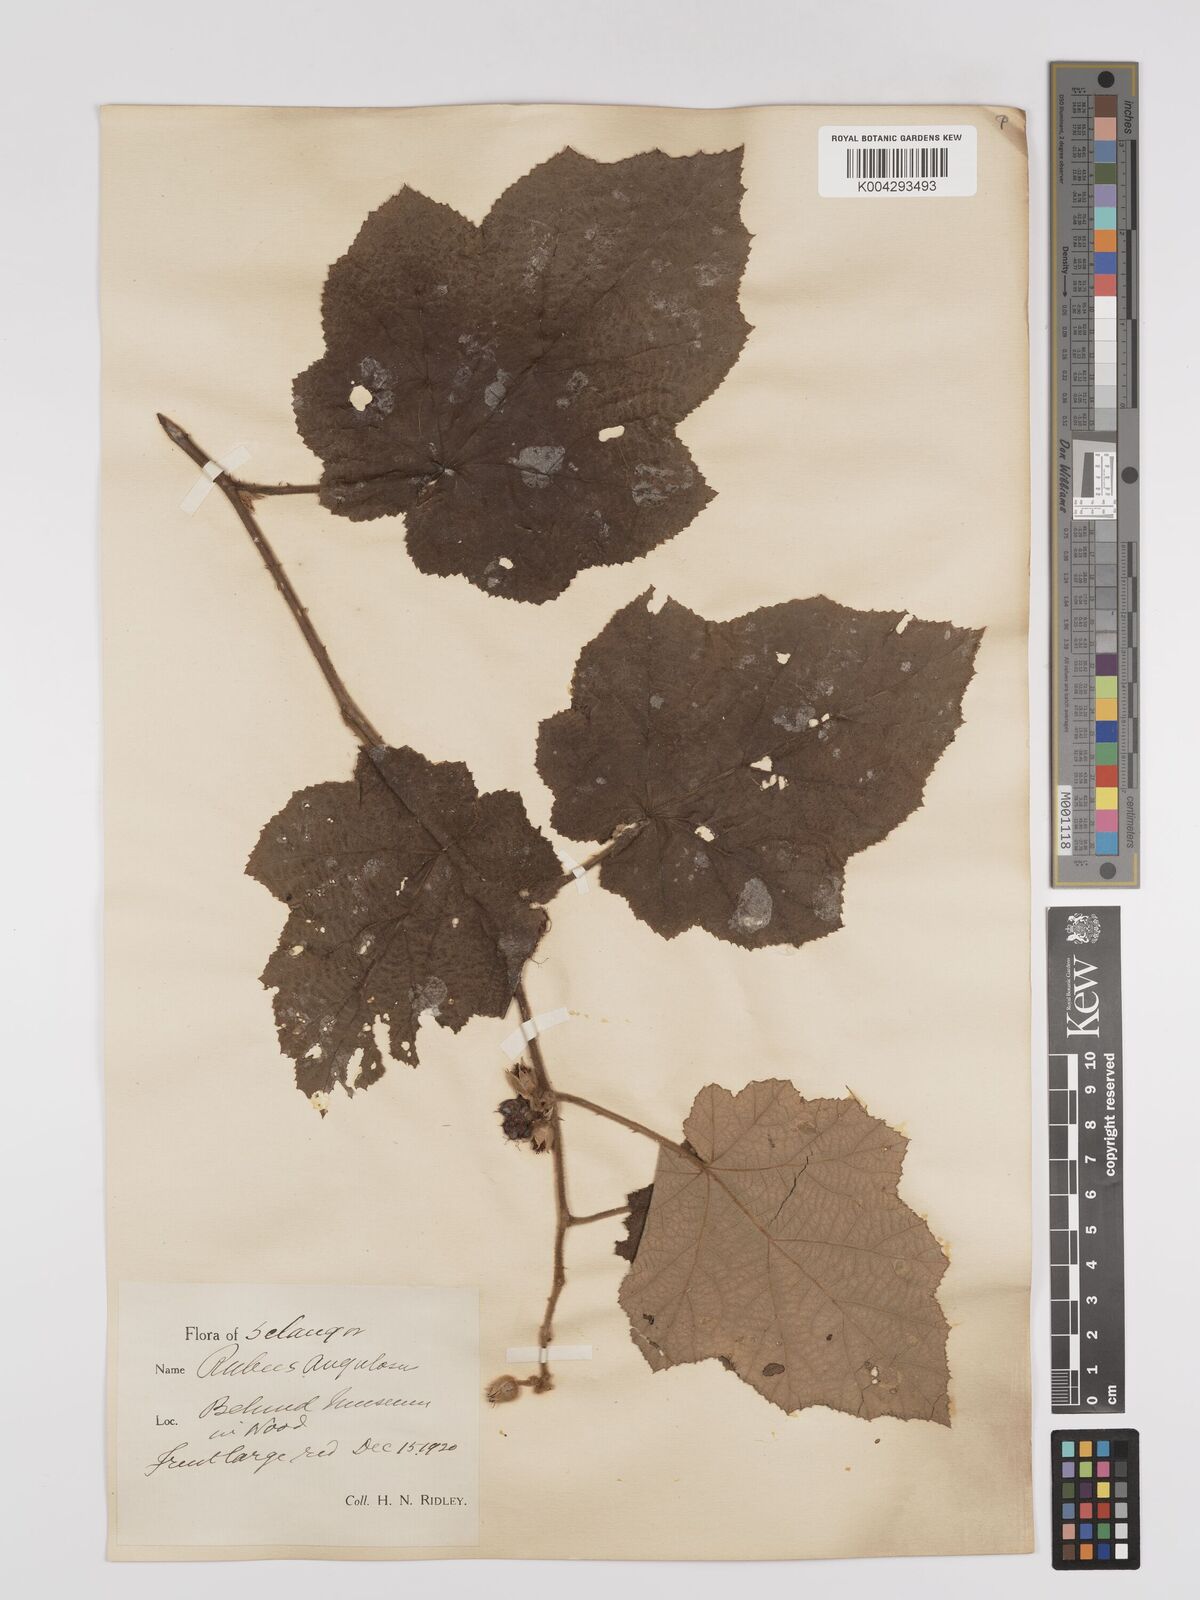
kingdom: Plantae
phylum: Tracheophyta
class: Magnoliopsida
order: Rosales
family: Rosaceae
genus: Rubus
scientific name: Rubus moluccanus
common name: Wild raspberry
